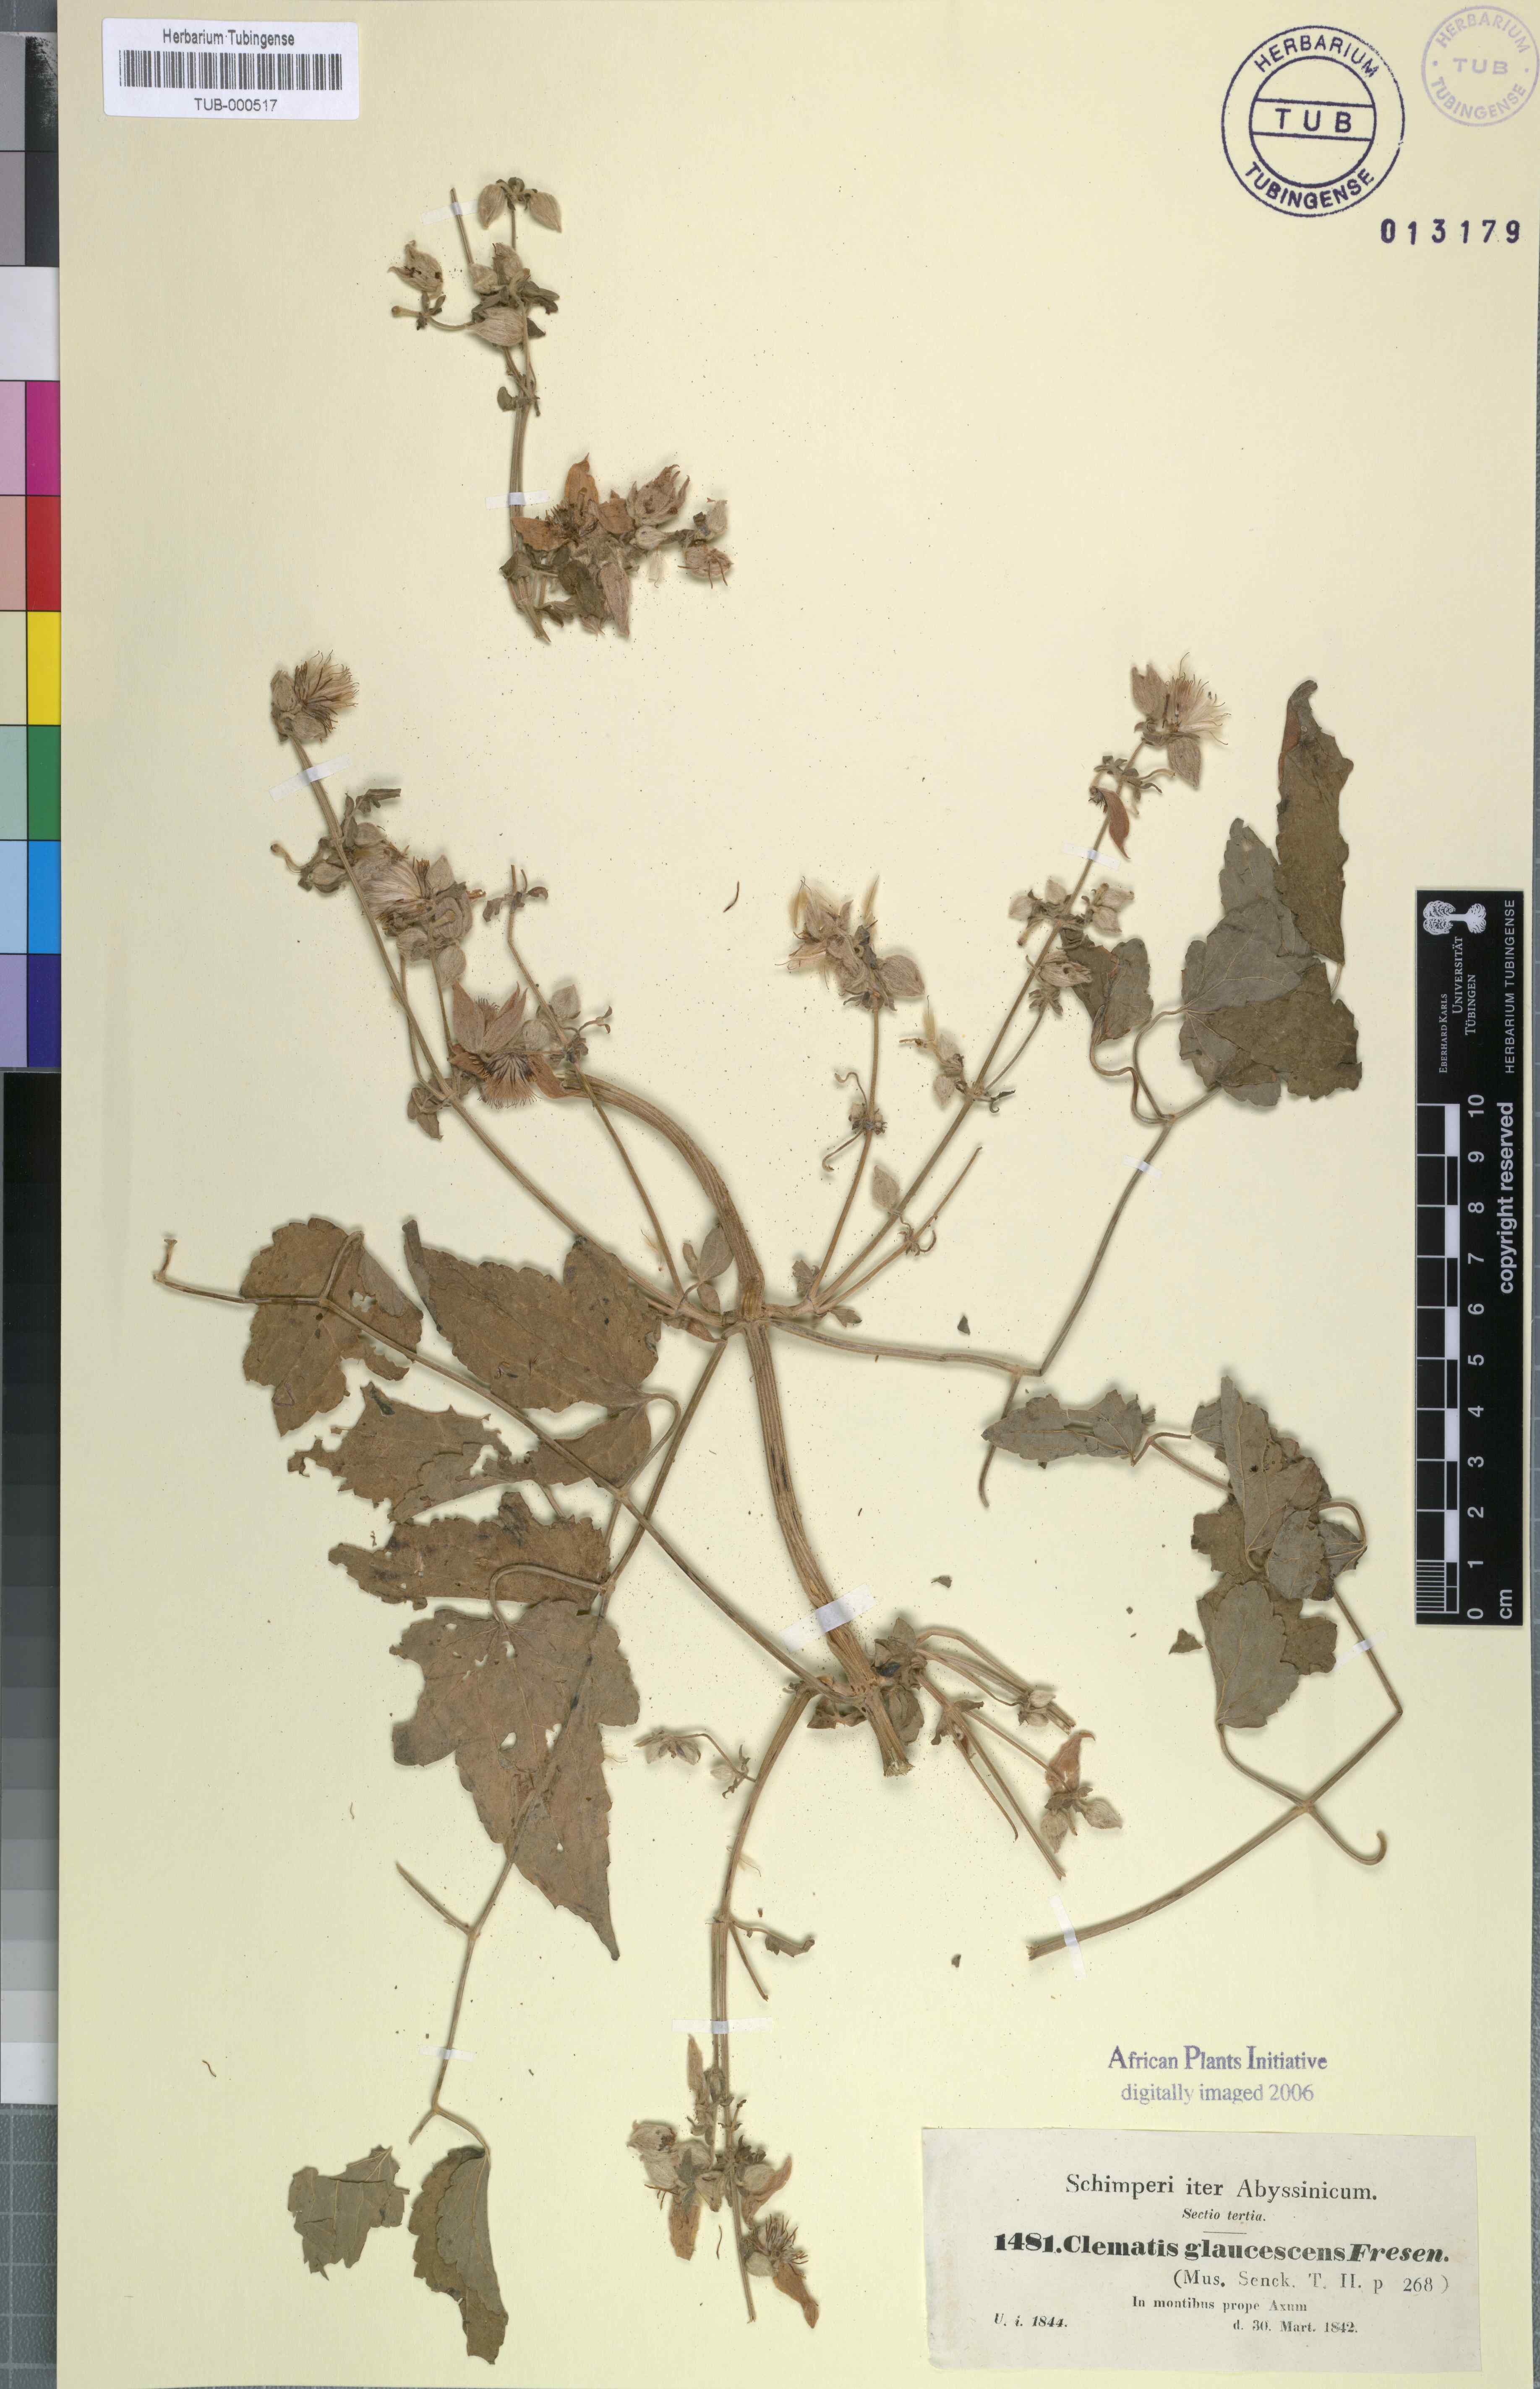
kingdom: Plantae
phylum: Tracheophyta
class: Magnoliopsida
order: Ranunculales
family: Ranunculaceae
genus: Clematis
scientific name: Clematis
